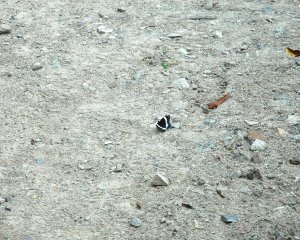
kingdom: Animalia
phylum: Arthropoda
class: Insecta
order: Lepidoptera
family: Nymphalidae
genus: Limenitis
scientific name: Limenitis arthemis
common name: Red-spotted Admiral
